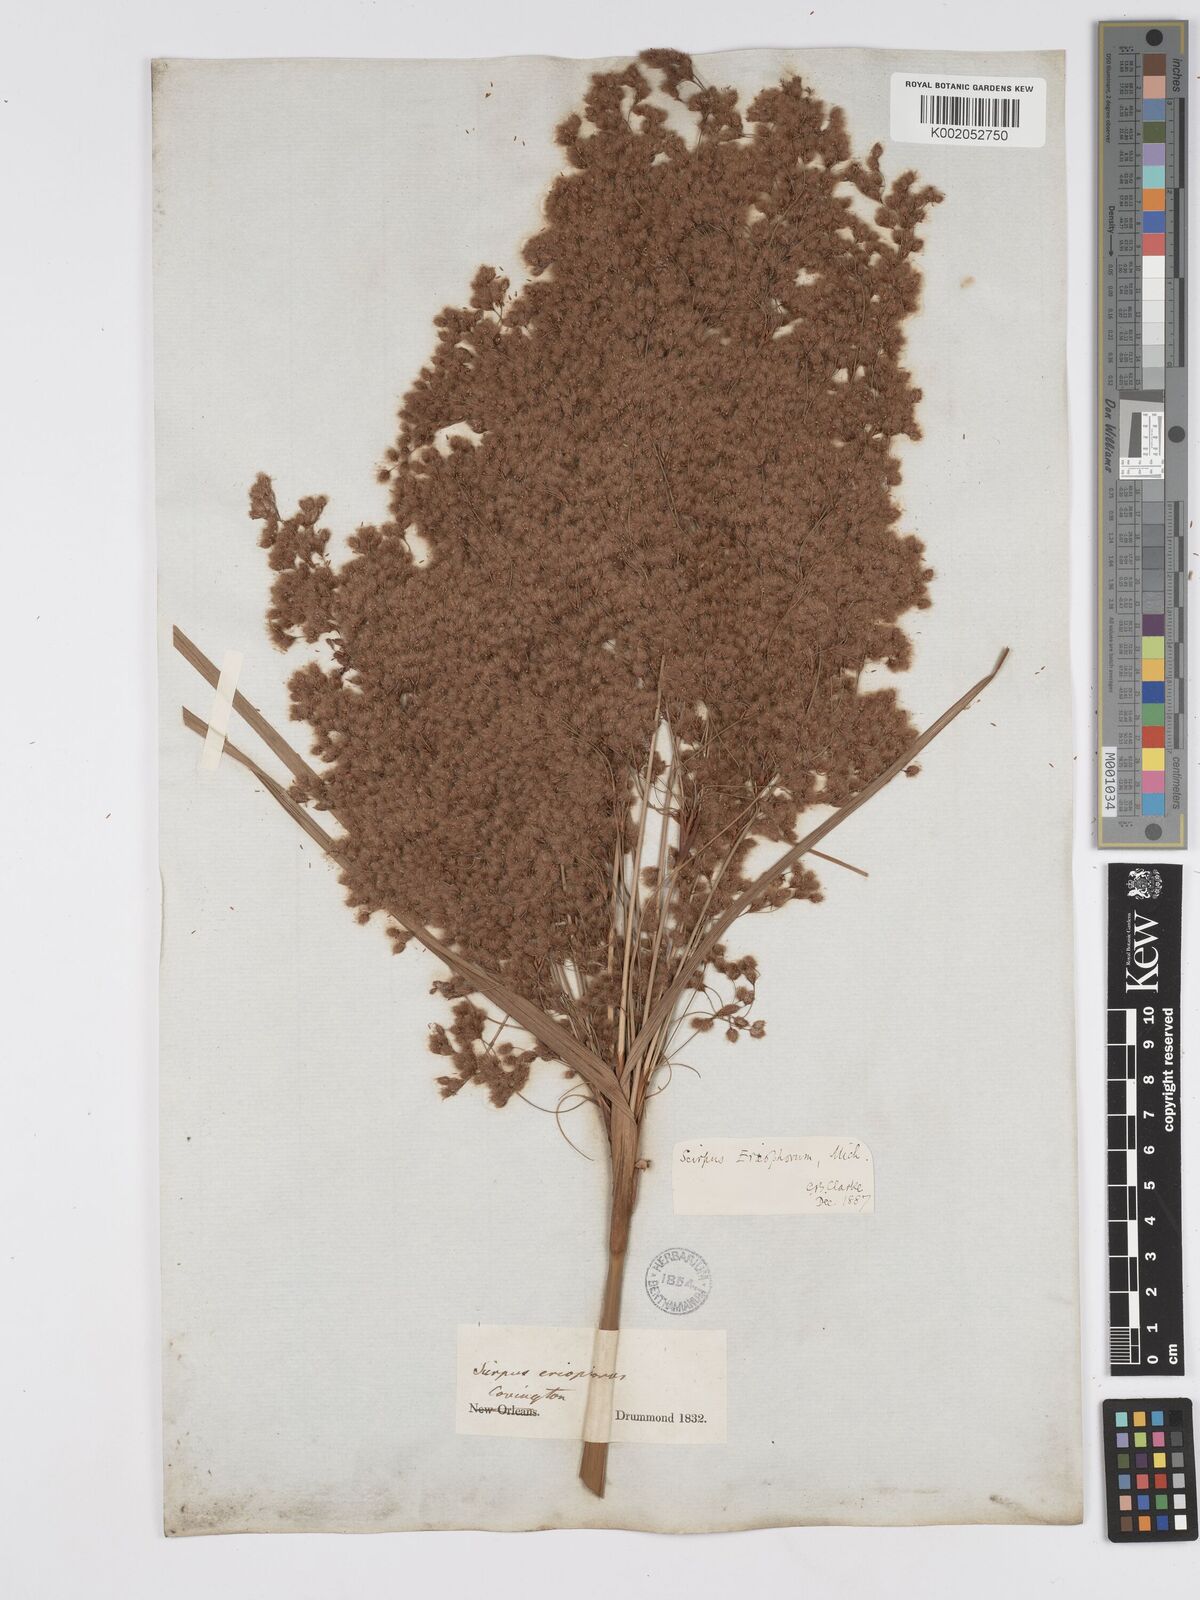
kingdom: Plantae
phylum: Tracheophyta
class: Liliopsida
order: Poales
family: Cyperaceae
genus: Scirpus
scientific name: Scirpus cyperinus
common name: Black-sheathed bulrush
